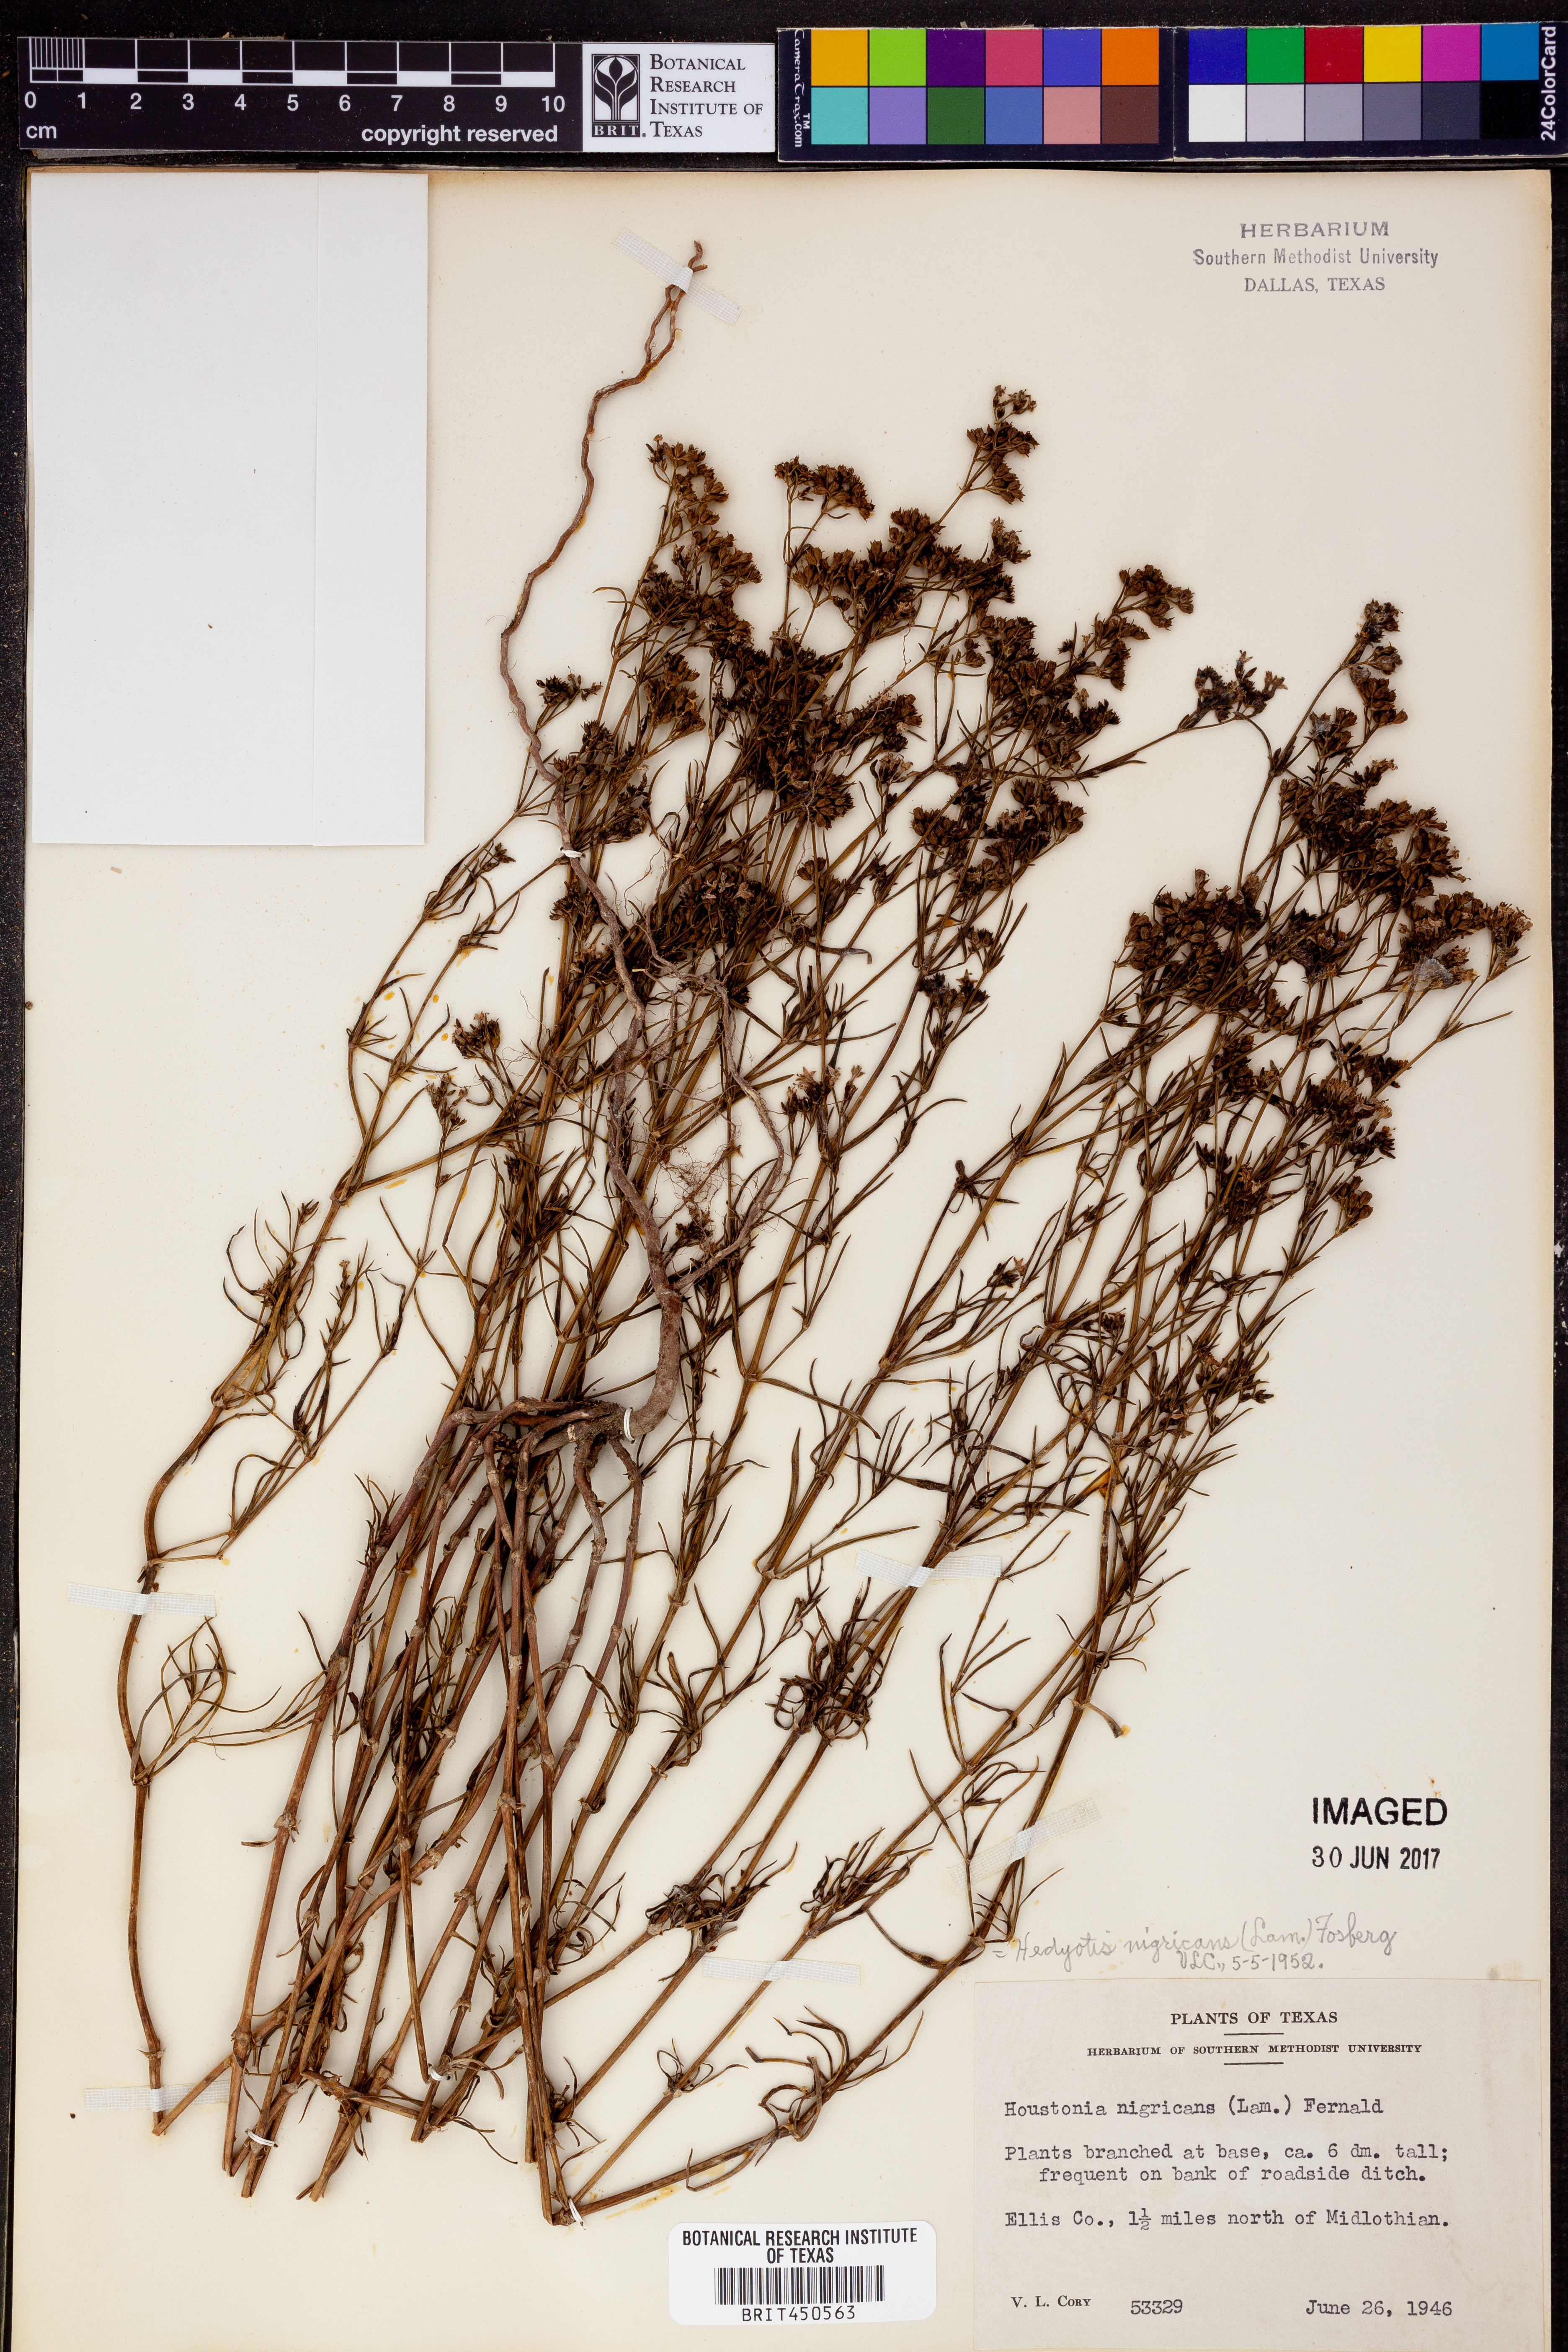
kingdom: Plantae
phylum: Tracheophyta
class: Magnoliopsida
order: Gentianales
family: Rubiaceae
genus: Stenaria
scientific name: Stenaria nigricans
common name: Diamondflowers
